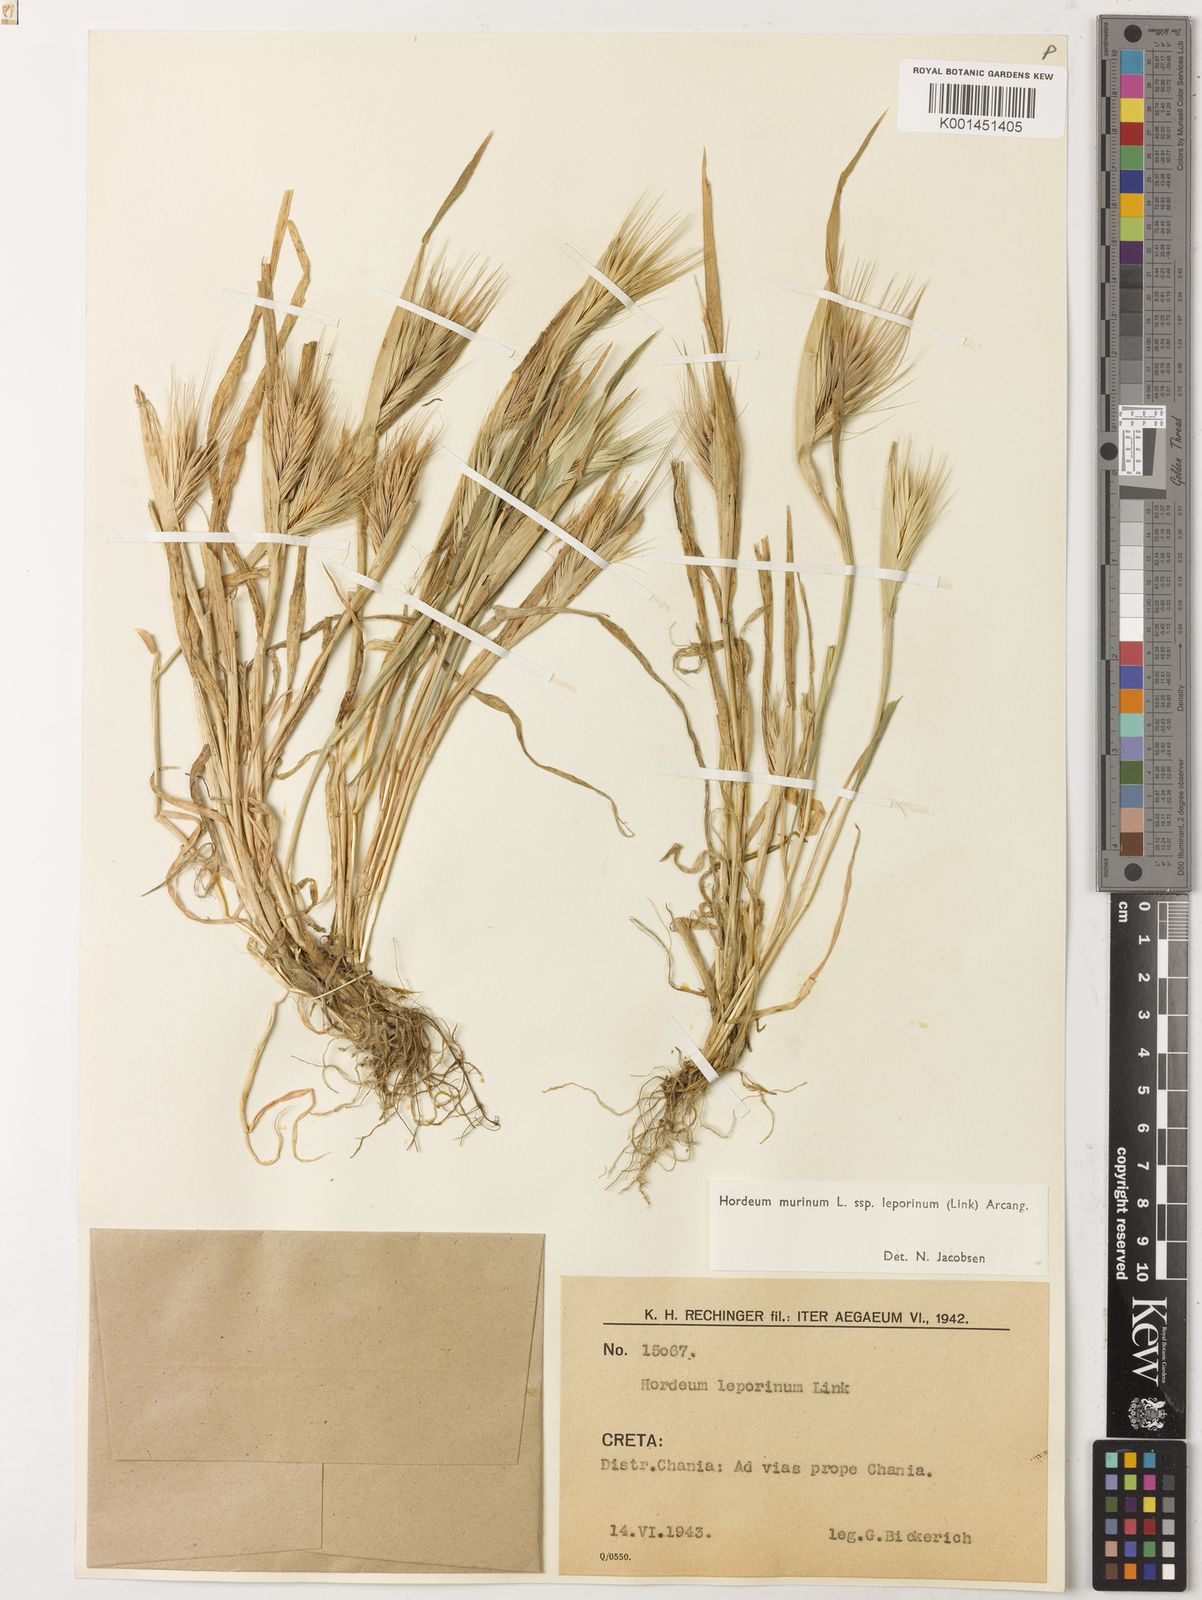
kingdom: Plantae
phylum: Tracheophyta
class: Liliopsida
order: Poales
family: Poaceae
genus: Hordeum
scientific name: Hordeum murinum
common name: Wall barley
